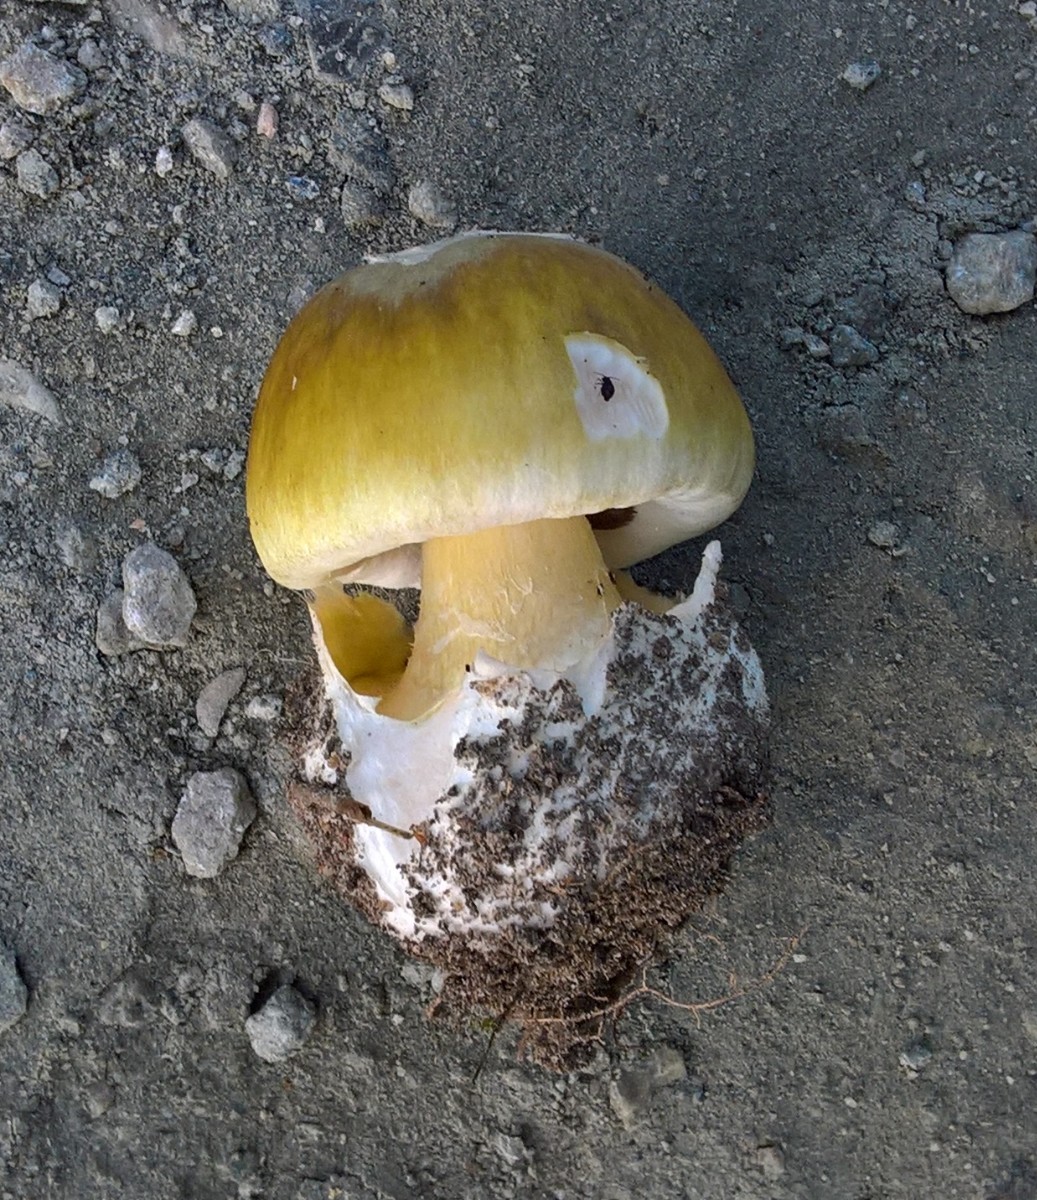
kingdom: Fungi
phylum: Basidiomycota
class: Agaricomycetes
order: Agaricales
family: Amanitaceae
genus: Amanita
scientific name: Amanita phalloides
